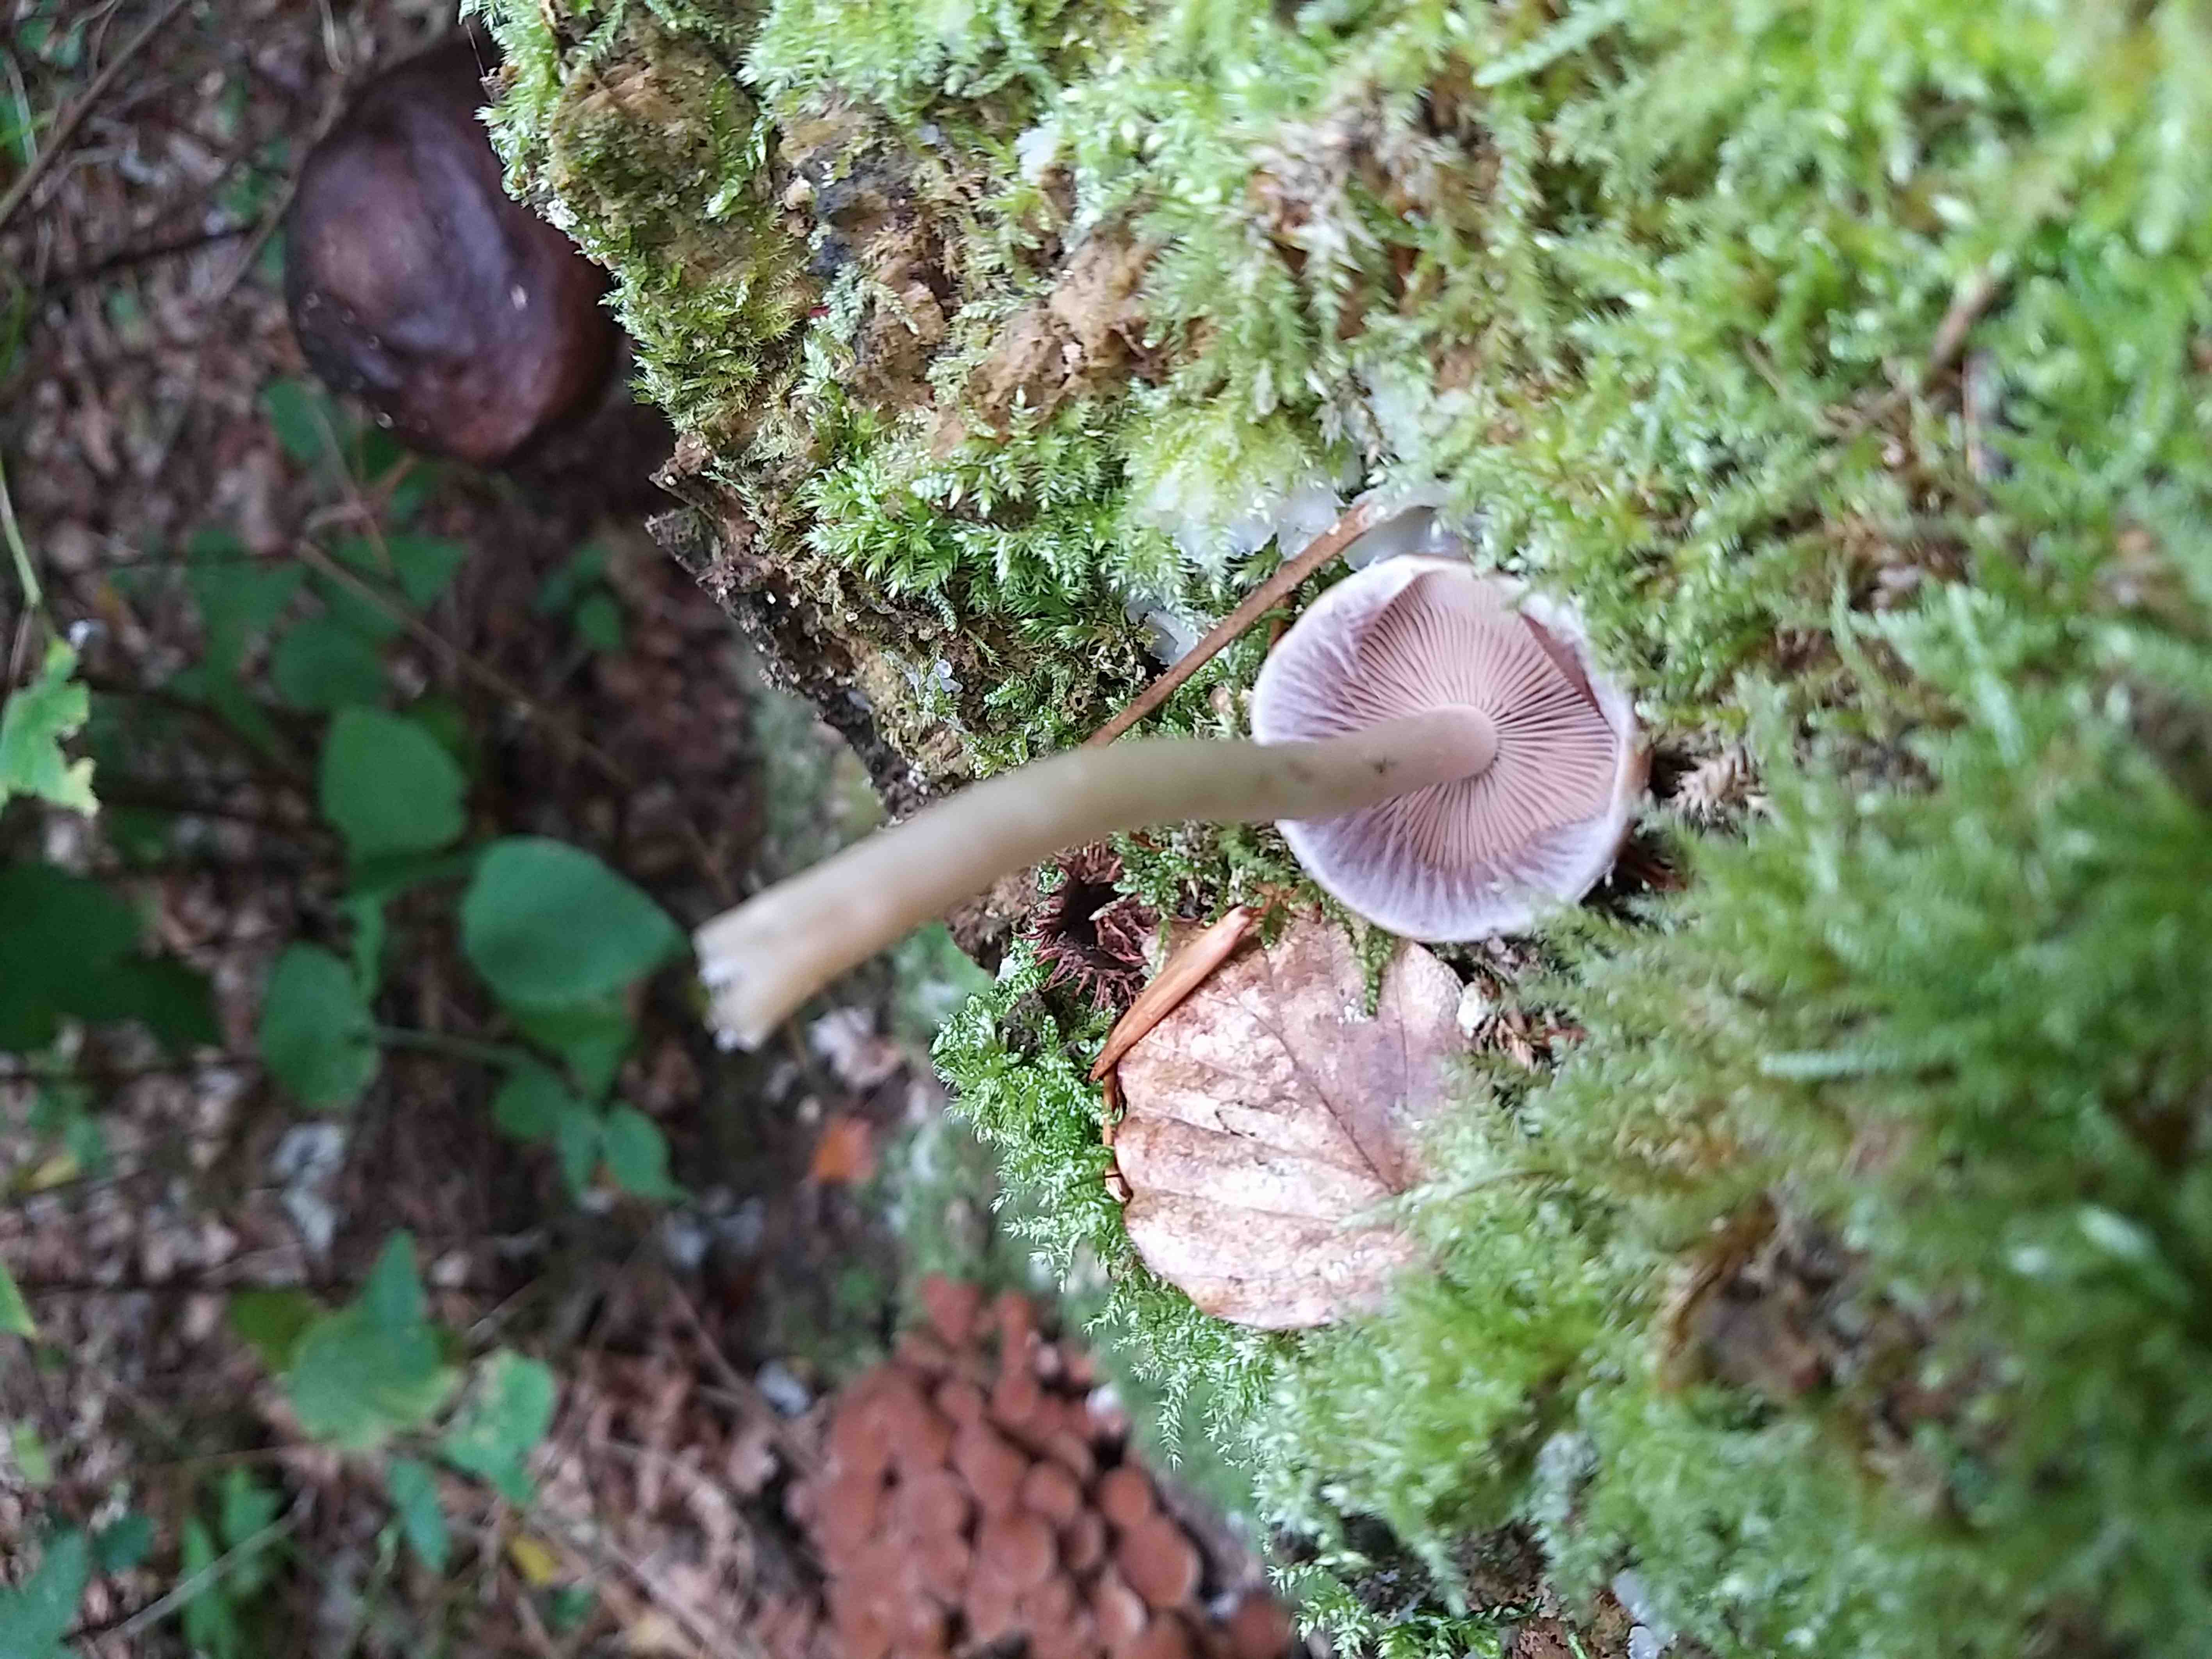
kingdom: Fungi
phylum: Basidiomycota
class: Agaricomycetes
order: Agaricales
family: Psathyrellaceae
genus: Psathyrella
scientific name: Psathyrella piluliformis
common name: lysstokket mørkhat
